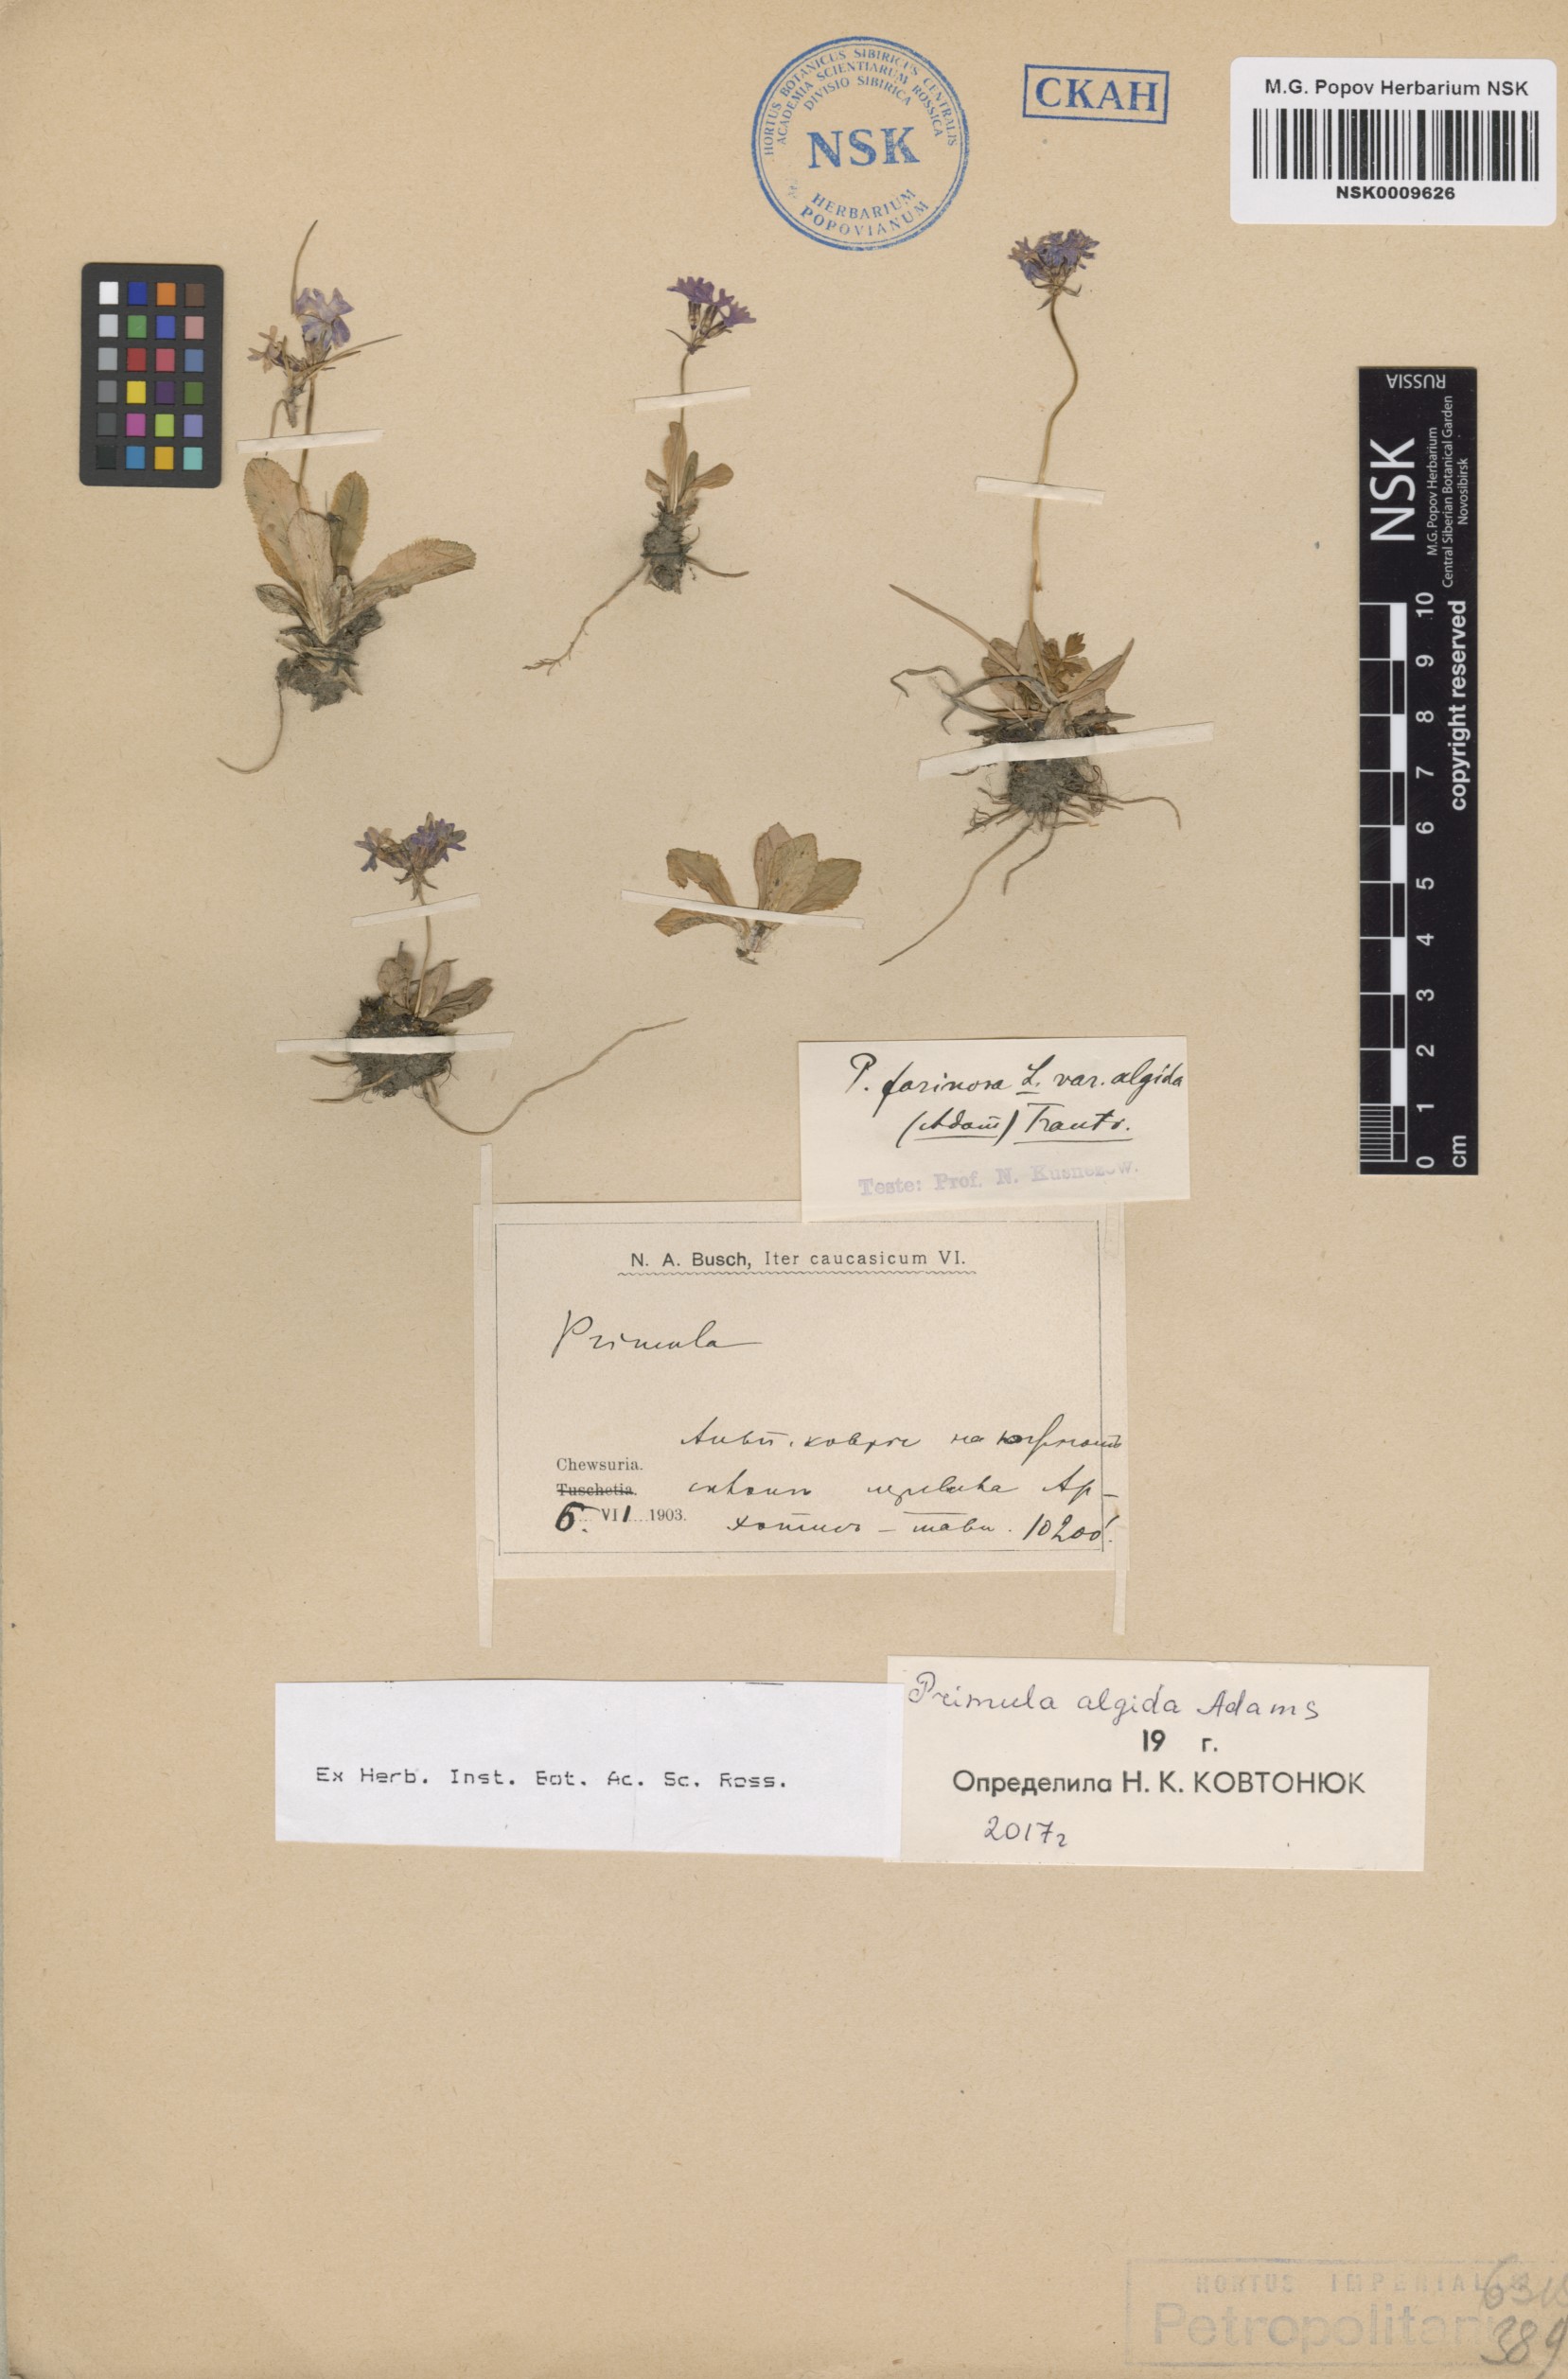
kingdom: Plantae
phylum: Tracheophyta
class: Magnoliopsida
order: Ericales
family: Primulaceae
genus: Primula
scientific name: Primula algida
